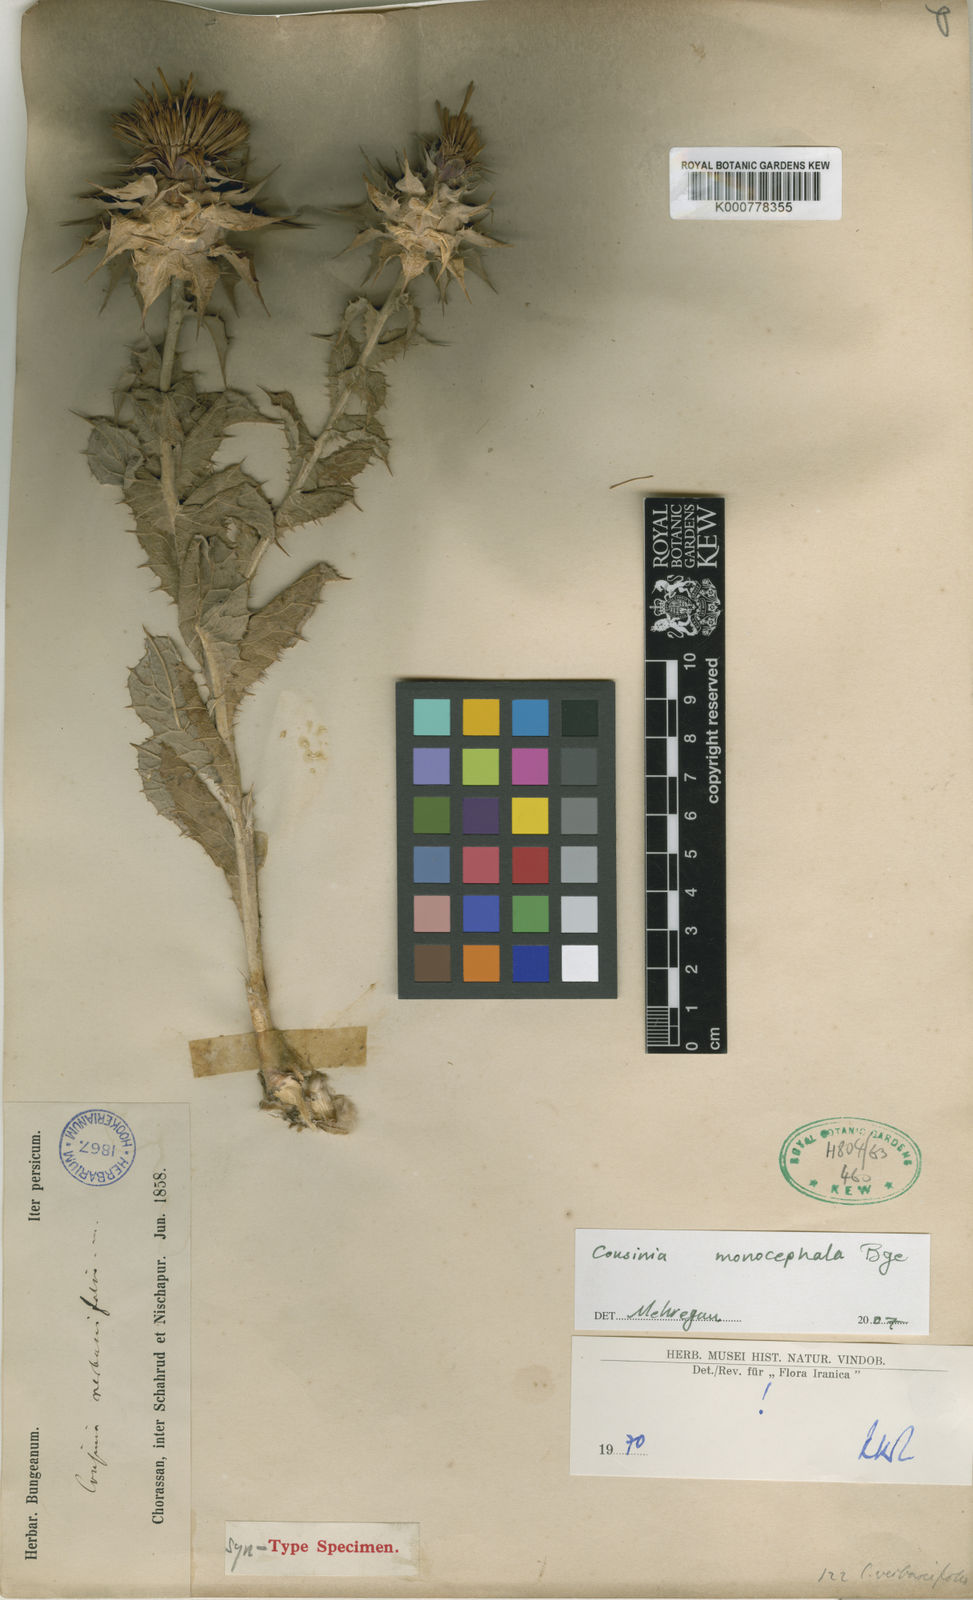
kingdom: Plantae
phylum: Tracheophyta
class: Magnoliopsida
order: Asterales
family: Asteraceae
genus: Cousinia
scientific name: Cousinia verbascifolia
